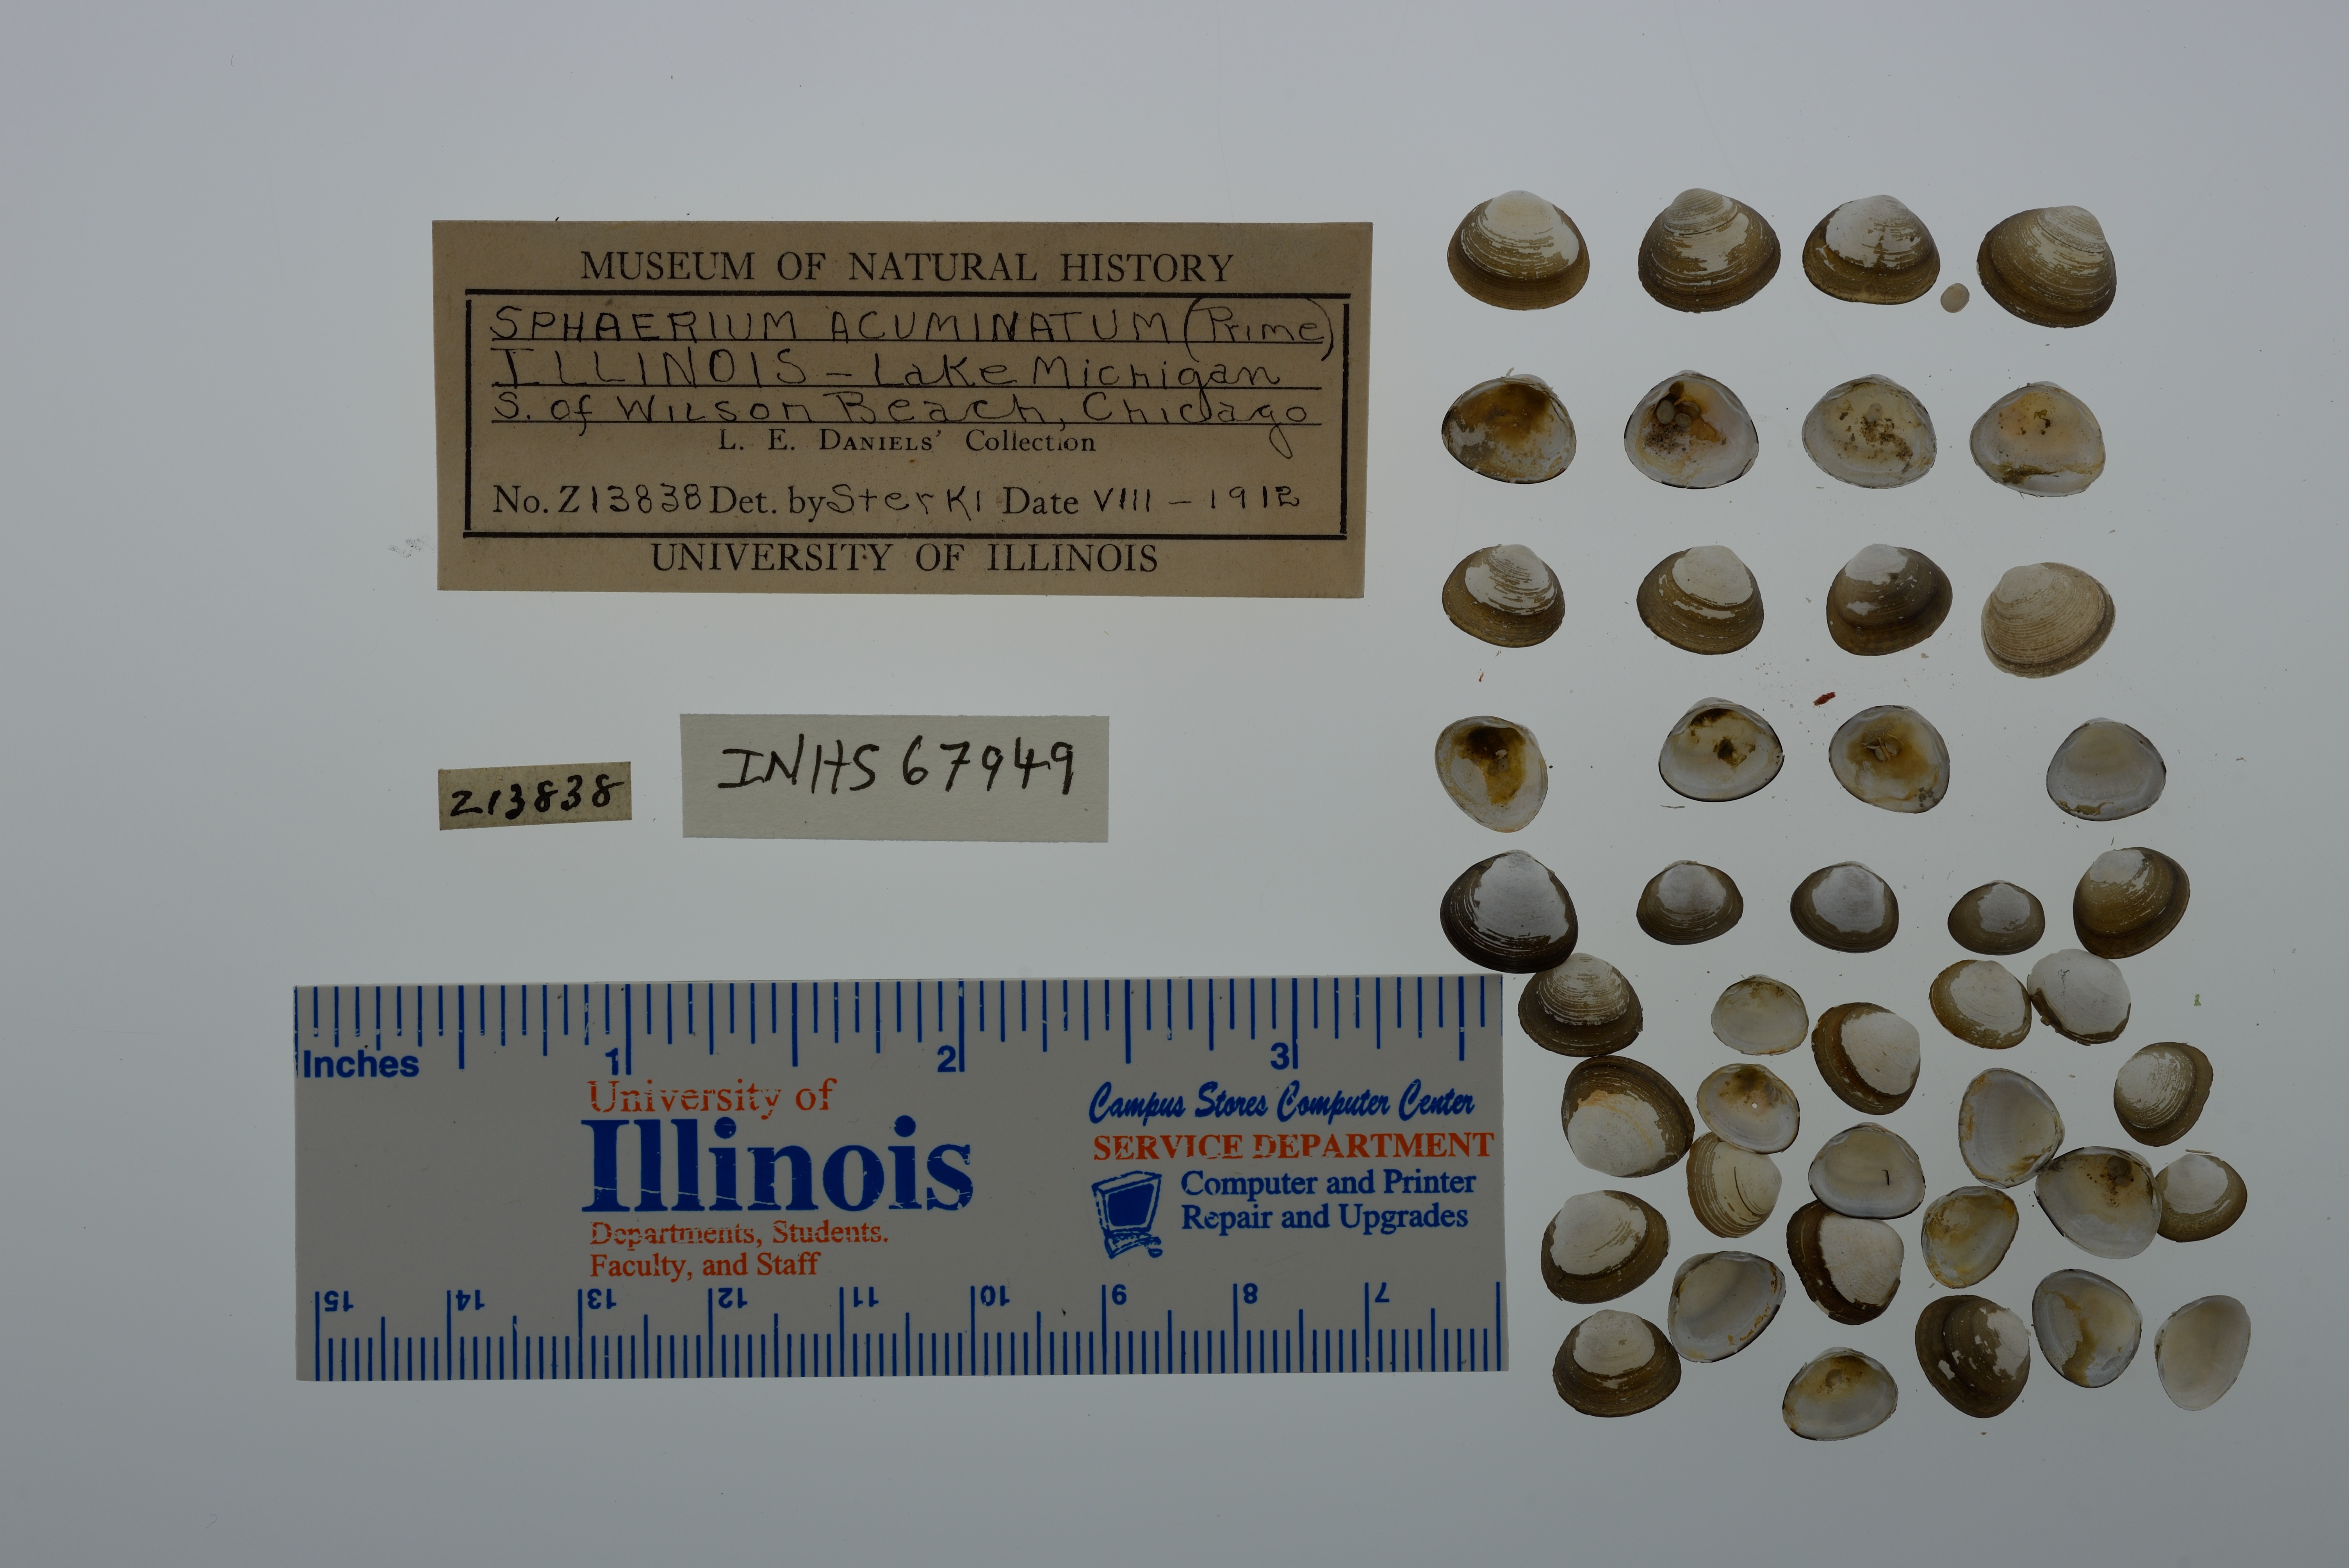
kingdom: Animalia
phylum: Mollusca
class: Bivalvia
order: Sphaeriida
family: Sphaeriidae
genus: Sphaerium
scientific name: Sphaerium striatinum
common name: Striated fingernailclam
